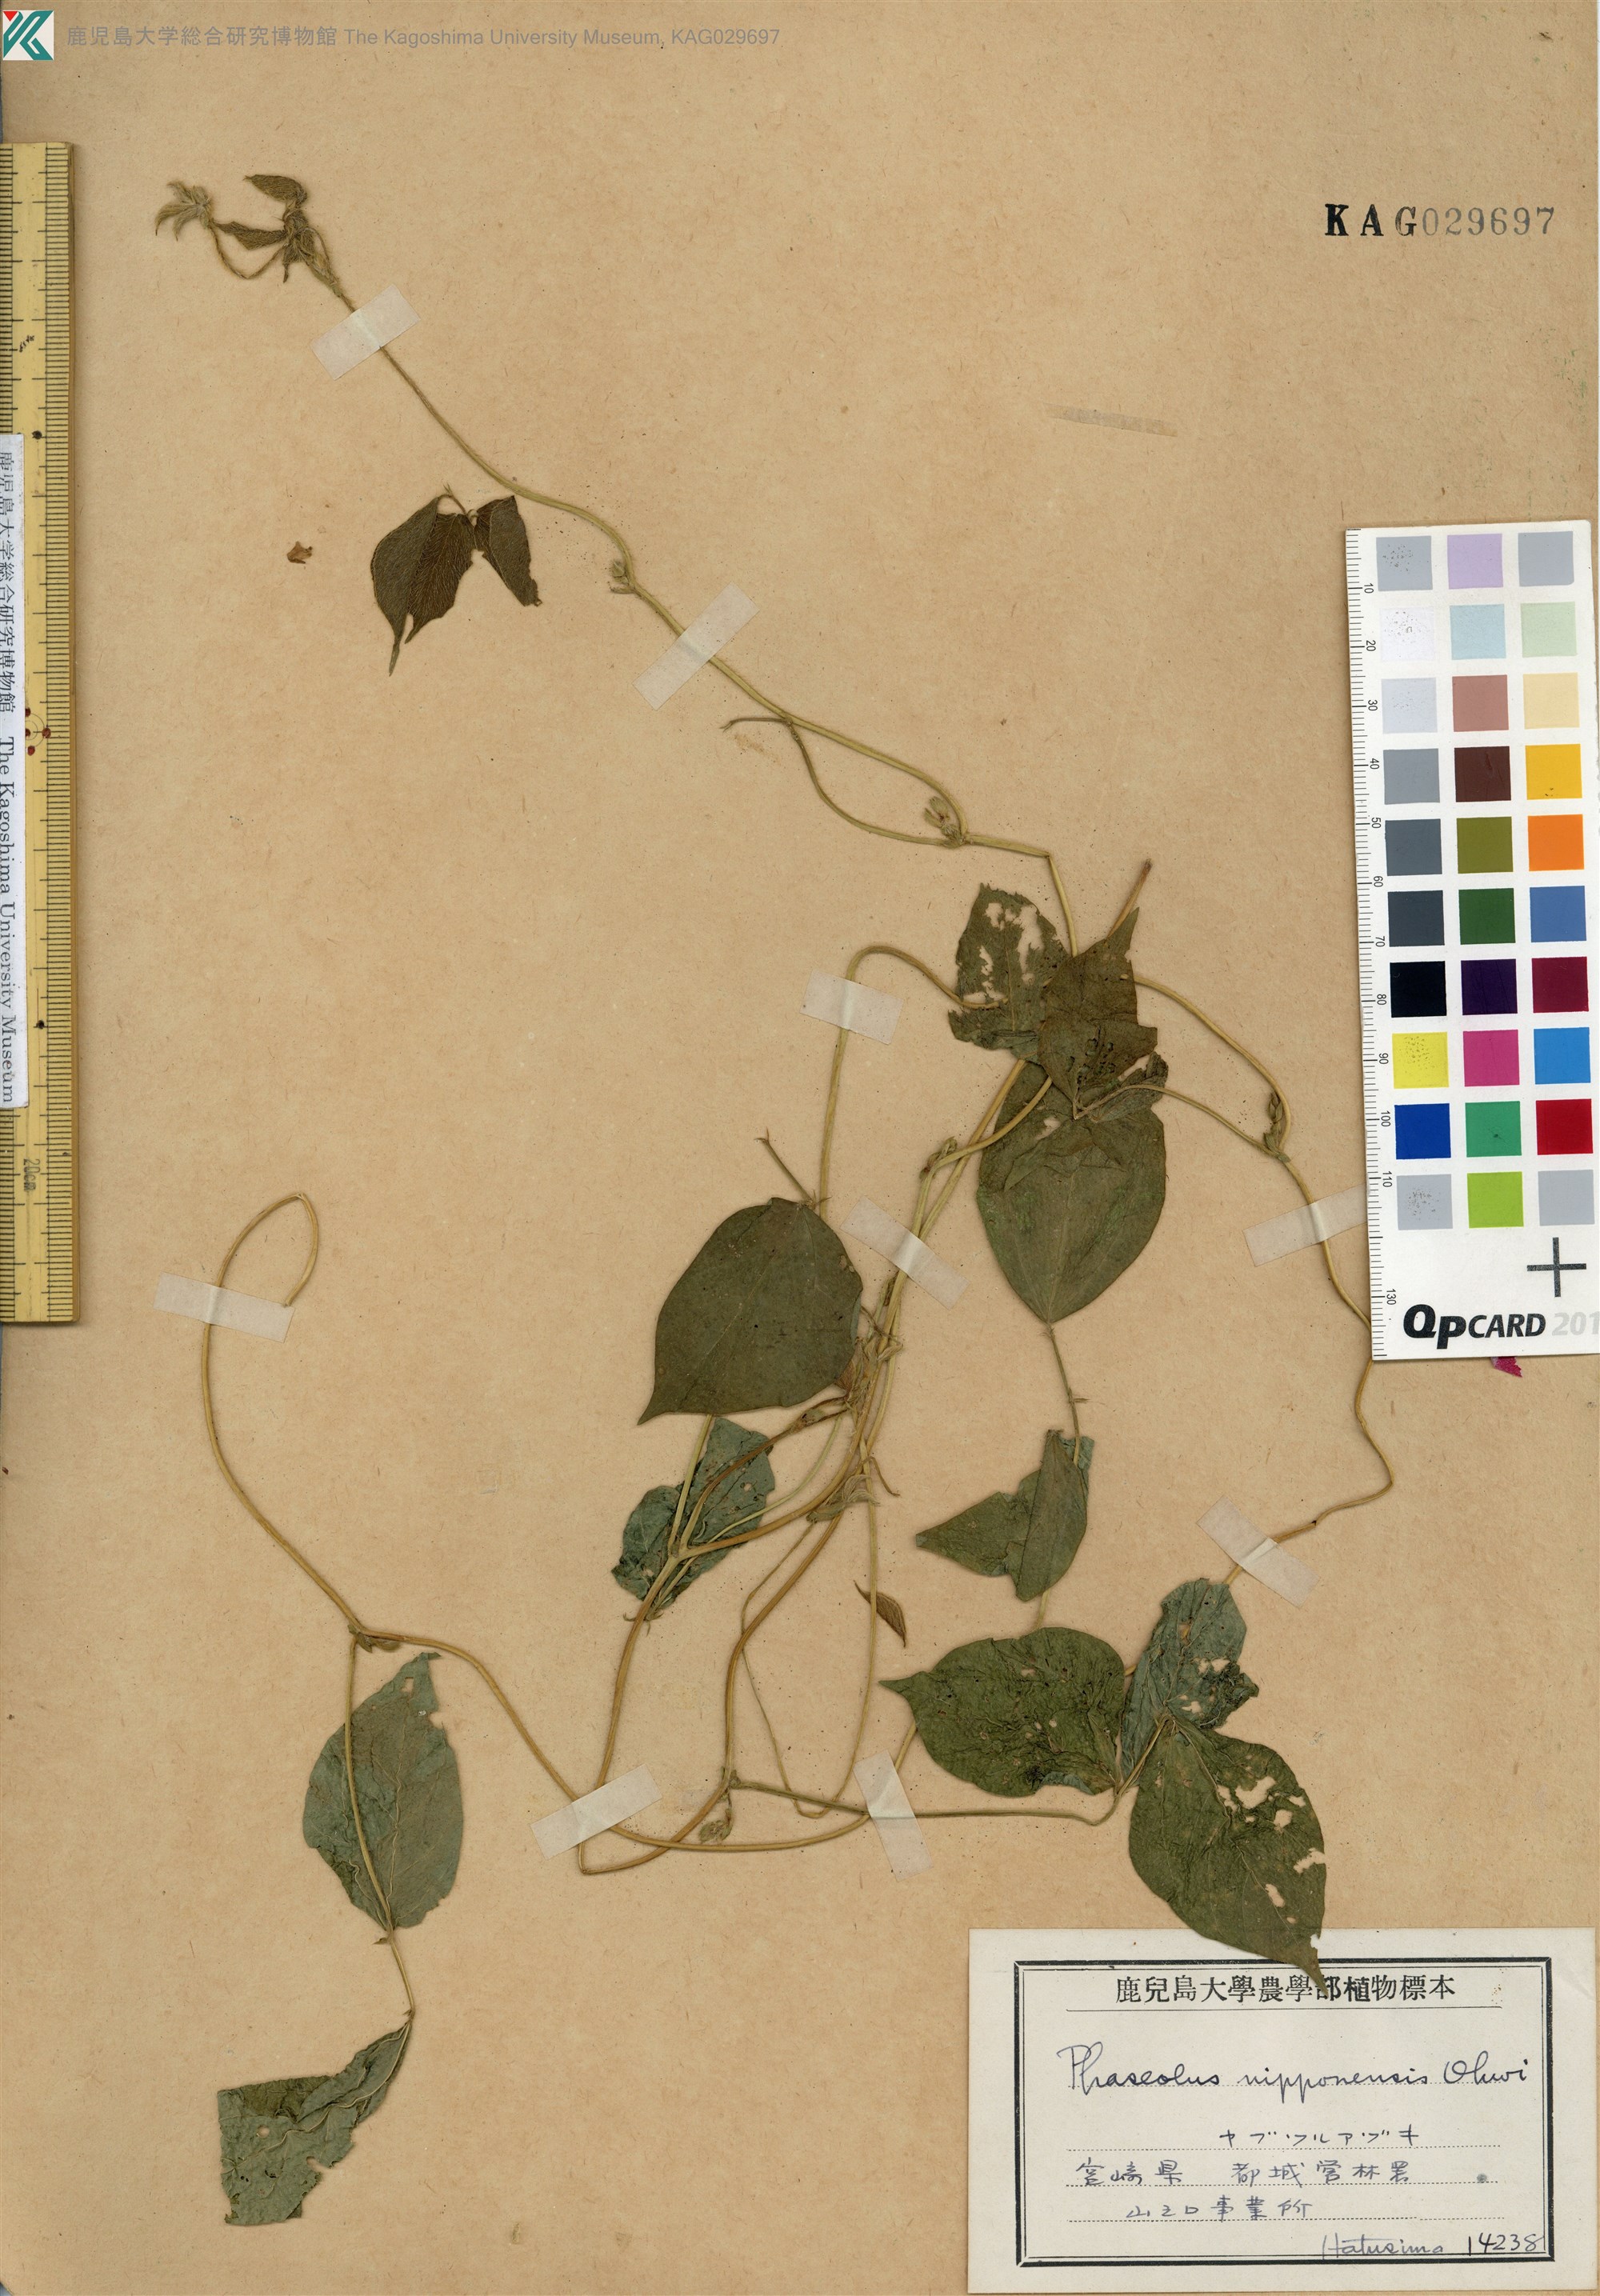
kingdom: Plantae
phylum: Tracheophyta
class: Magnoliopsida
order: Fabales
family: Fabaceae
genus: Vigna
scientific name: Vigna angularis
